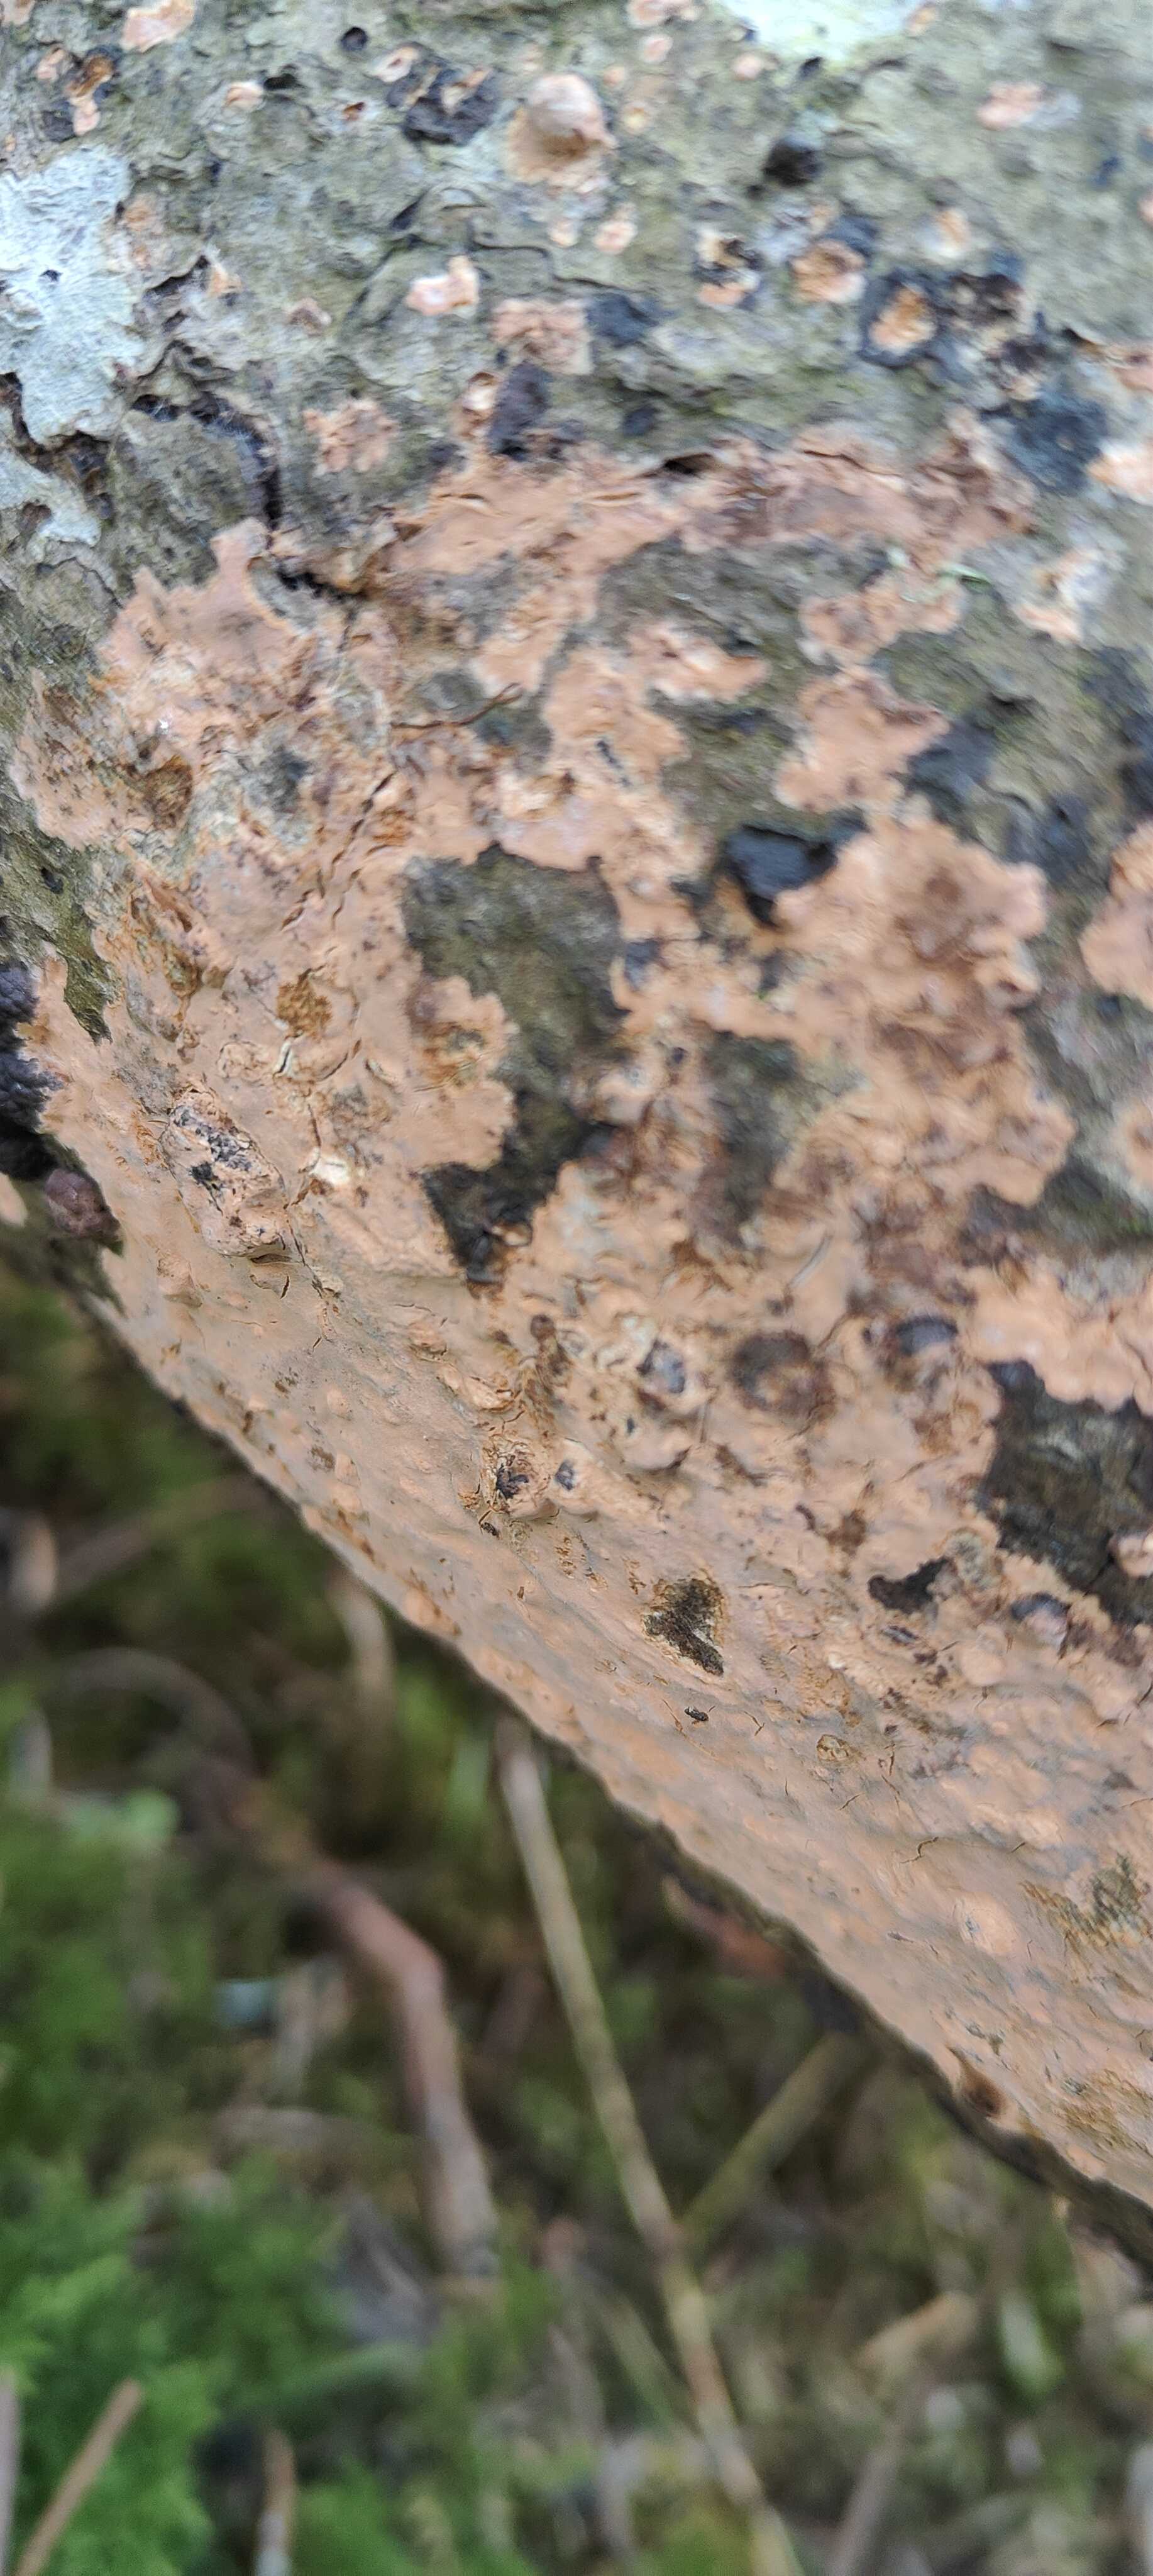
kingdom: Fungi
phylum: Basidiomycota
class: Agaricomycetes
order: Russulales
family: Peniophoraceae
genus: Peniophora
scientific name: Peniophora incarnata
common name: laksefarvet voksskind
